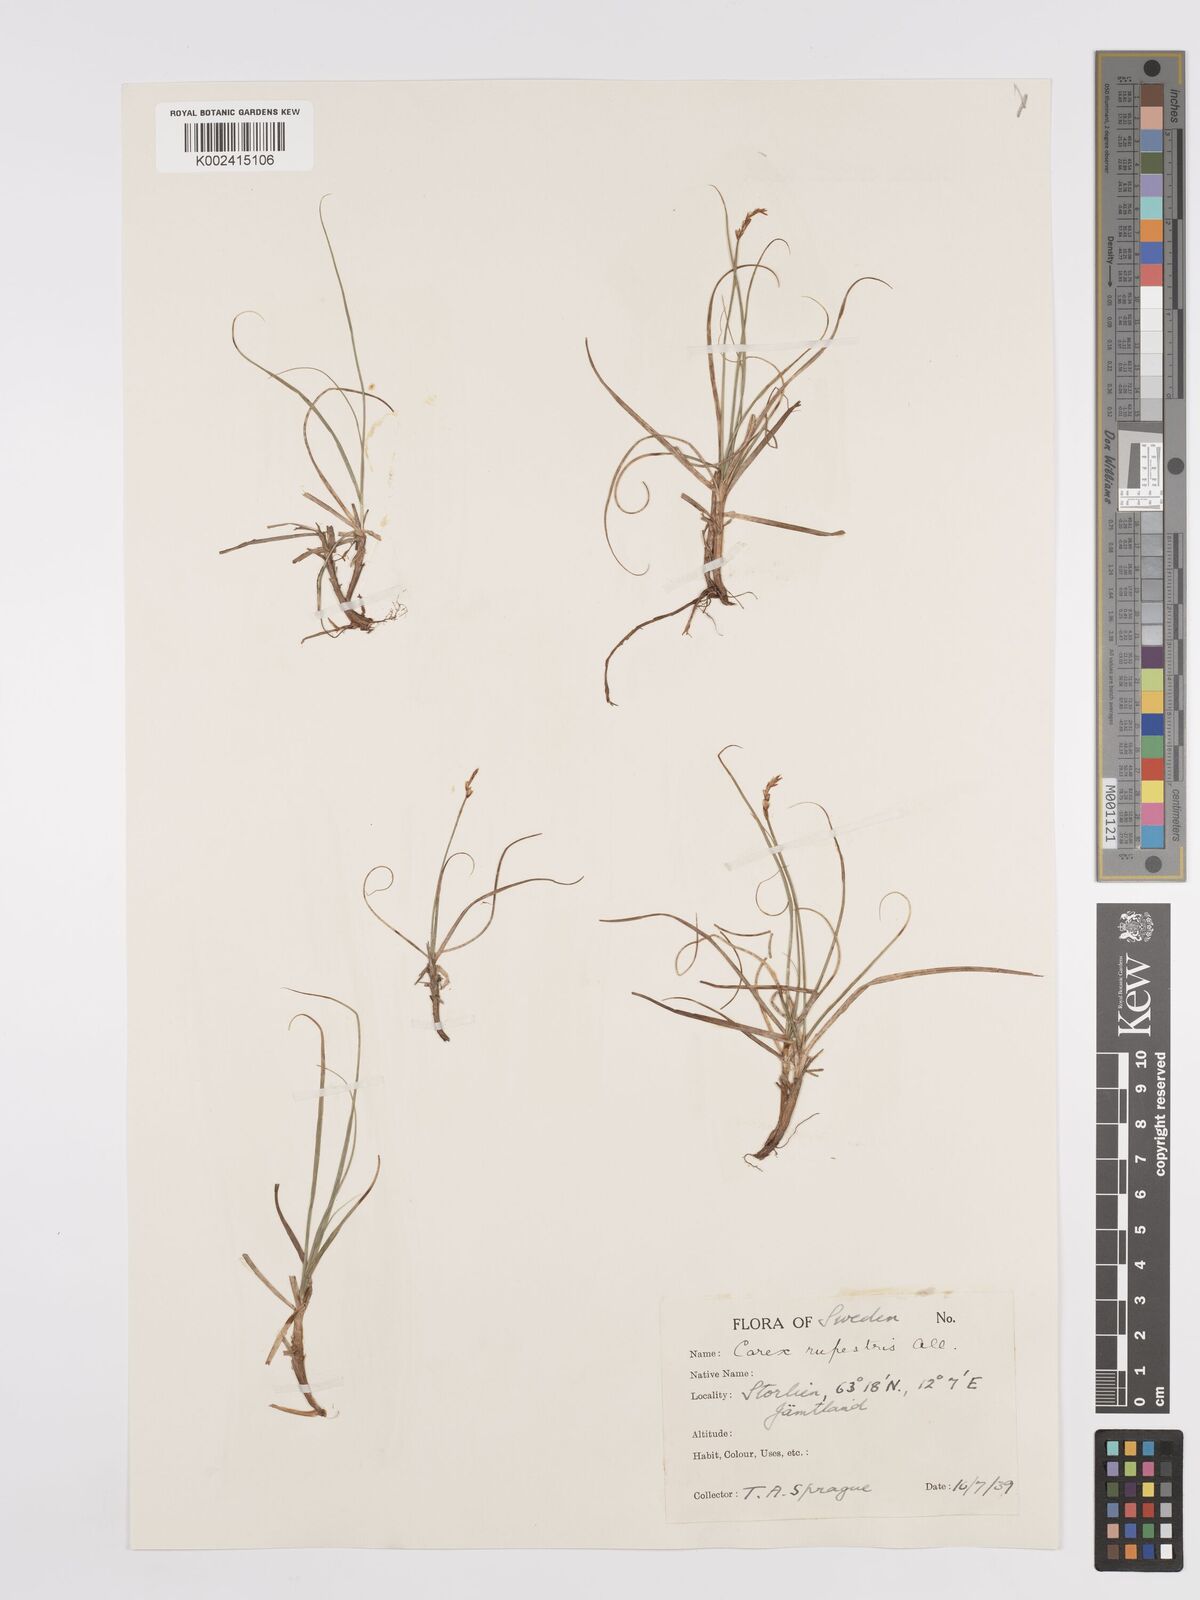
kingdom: Plantae
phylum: Tracheophyta
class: Liliopsida
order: Poales
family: Cyperaceae
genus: Carex
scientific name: Carex rupestris
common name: Rock sedge
